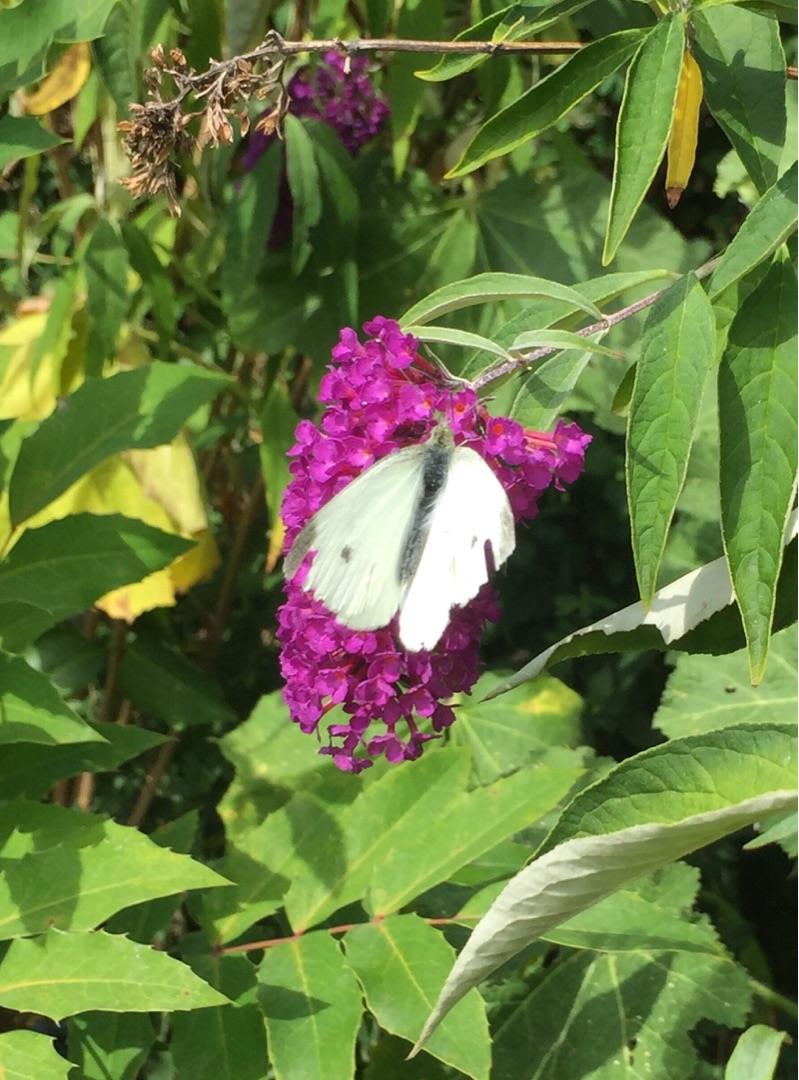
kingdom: Animalia
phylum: Arthropoda
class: Insecta
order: Lepidoptera
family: Pieridae
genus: Pieris
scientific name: Pieris rapae
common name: Lille kålsommerfugl
